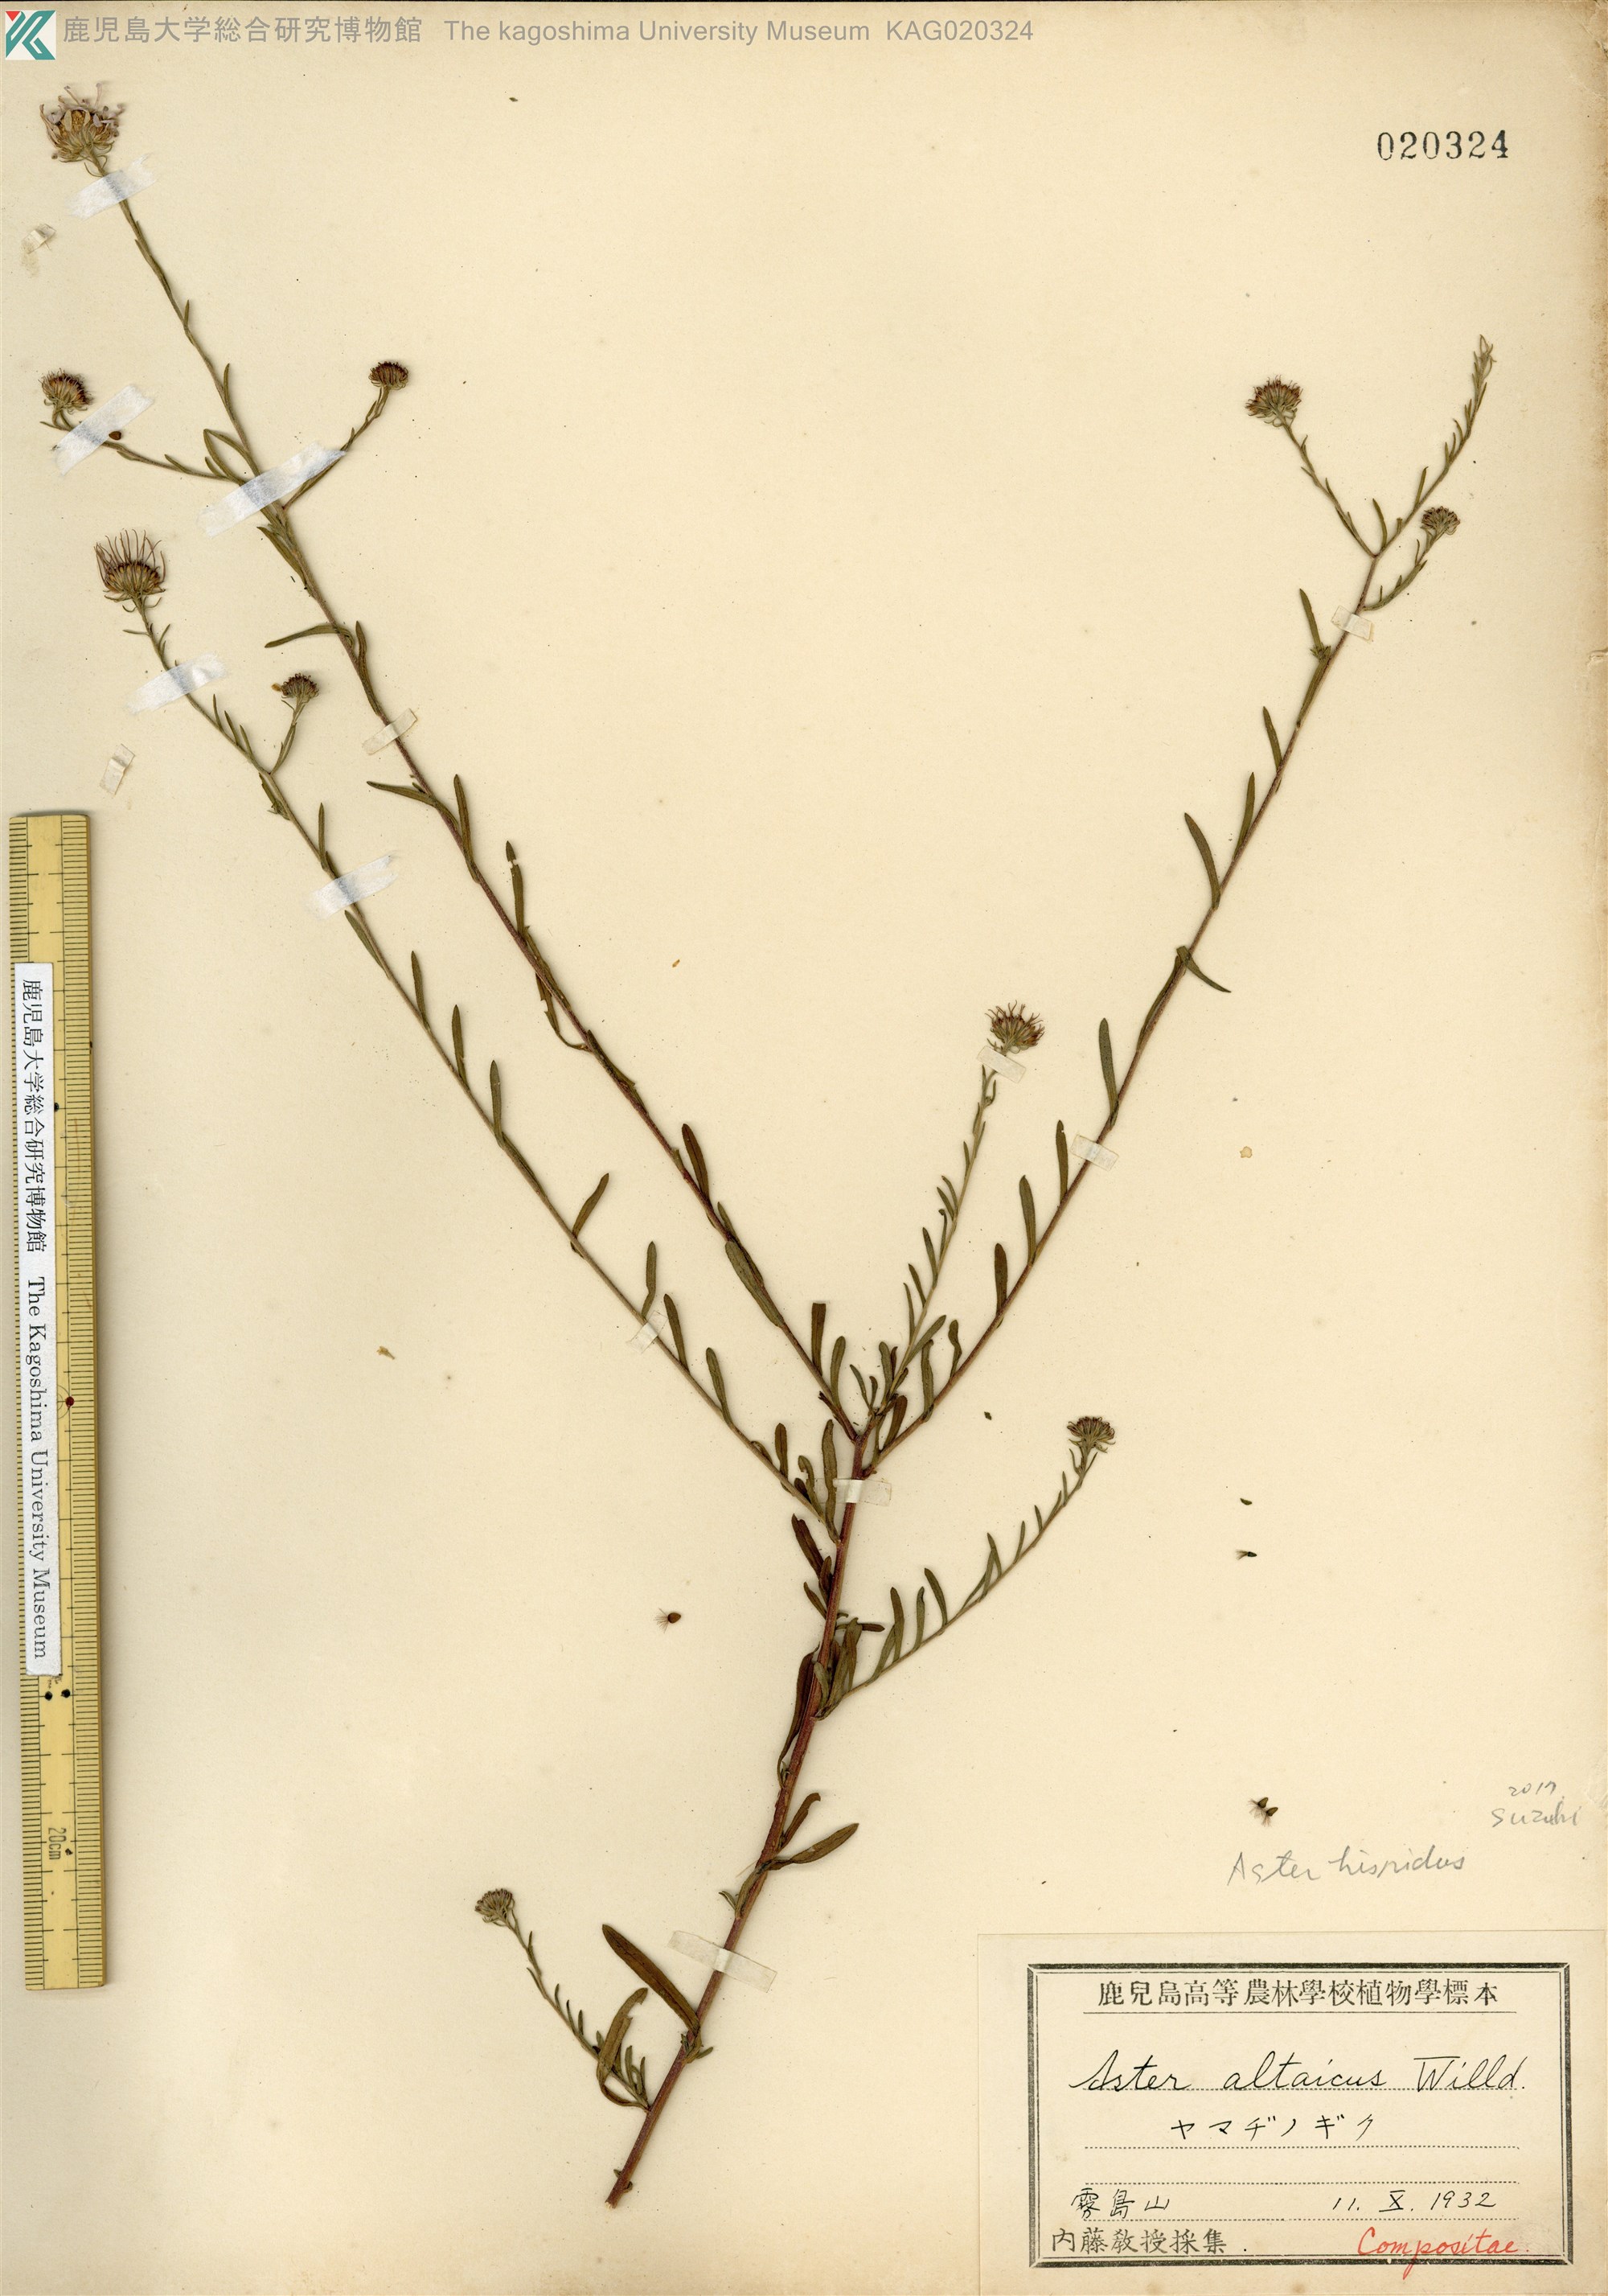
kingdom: Plantae
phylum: Tracheophyta
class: Magnoliopsida
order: Asterales
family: Asteraceae
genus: Heteropappus
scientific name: Heteropappus hispidus
